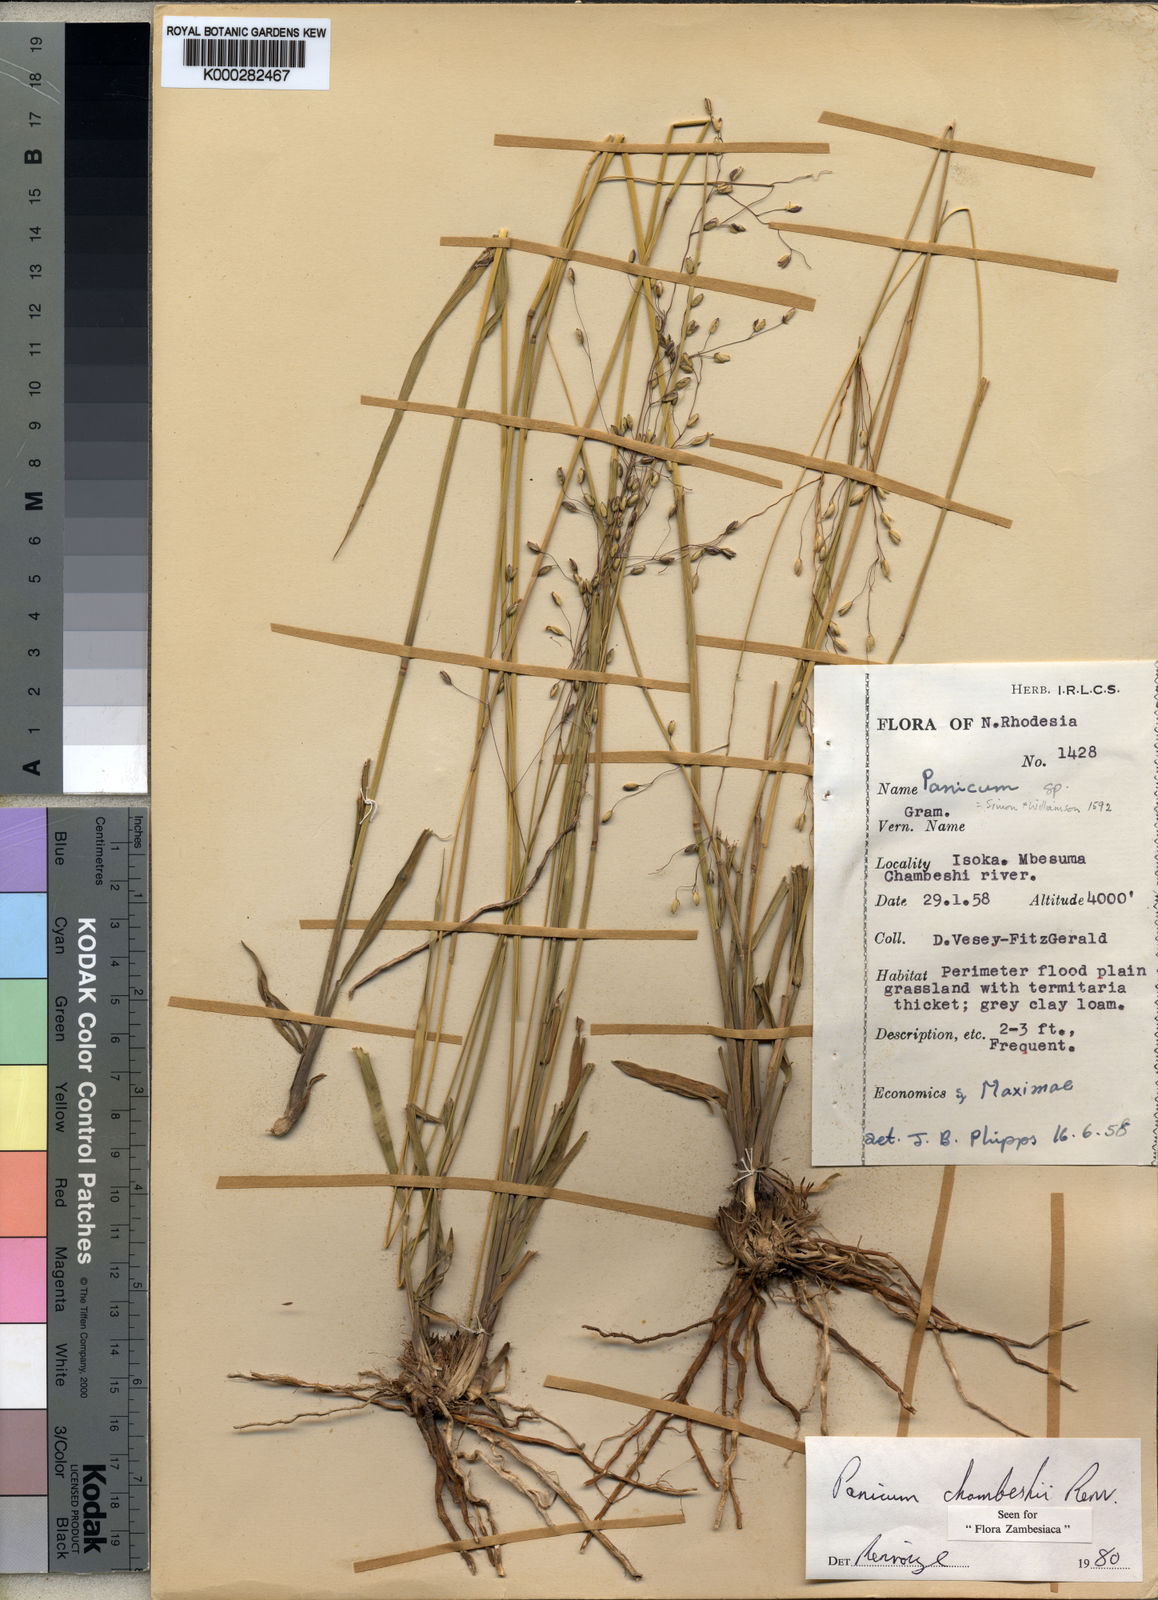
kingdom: Plantae
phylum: Tracheophyta
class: Liliopsida
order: Poales
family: Poaceae
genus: Panicum
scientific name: Panicum chambeshii
